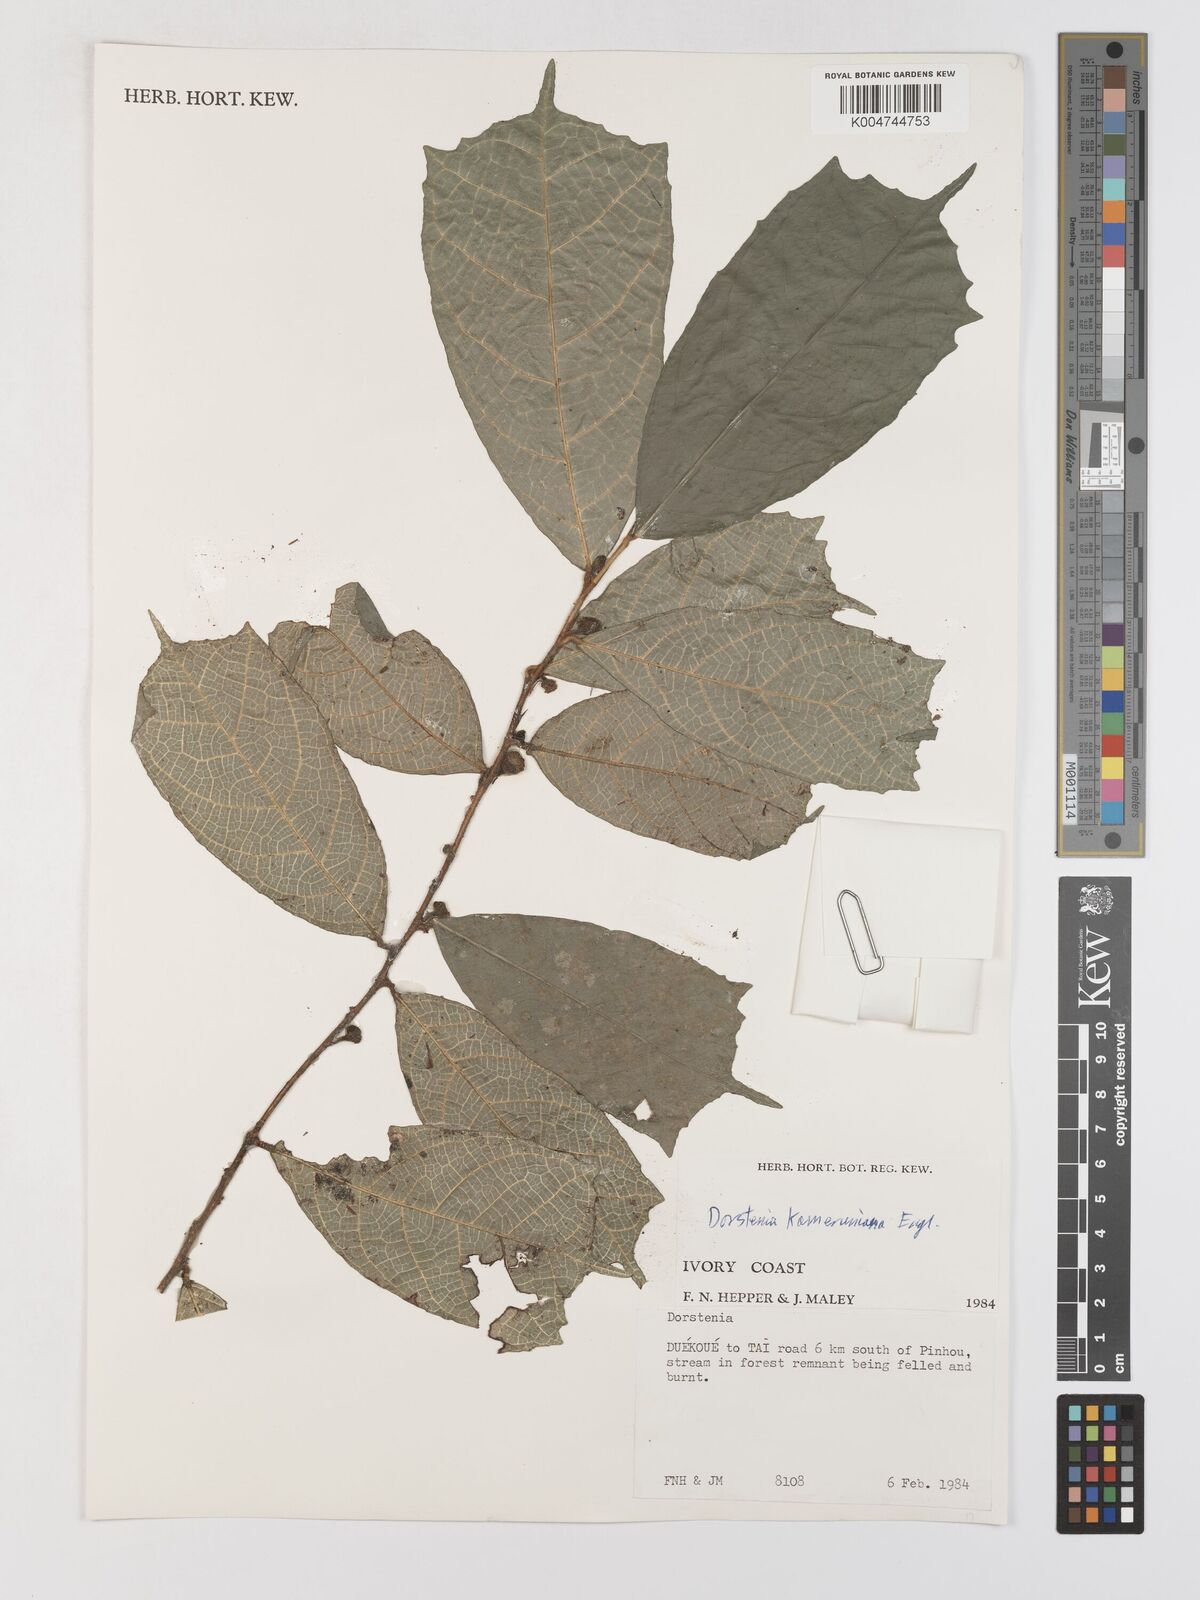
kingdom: Plantae
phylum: Tracheophyta
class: Magnoliopsida
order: Rosales
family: Moraceae
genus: Dorstenia
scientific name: Dorstenia kameruniana
